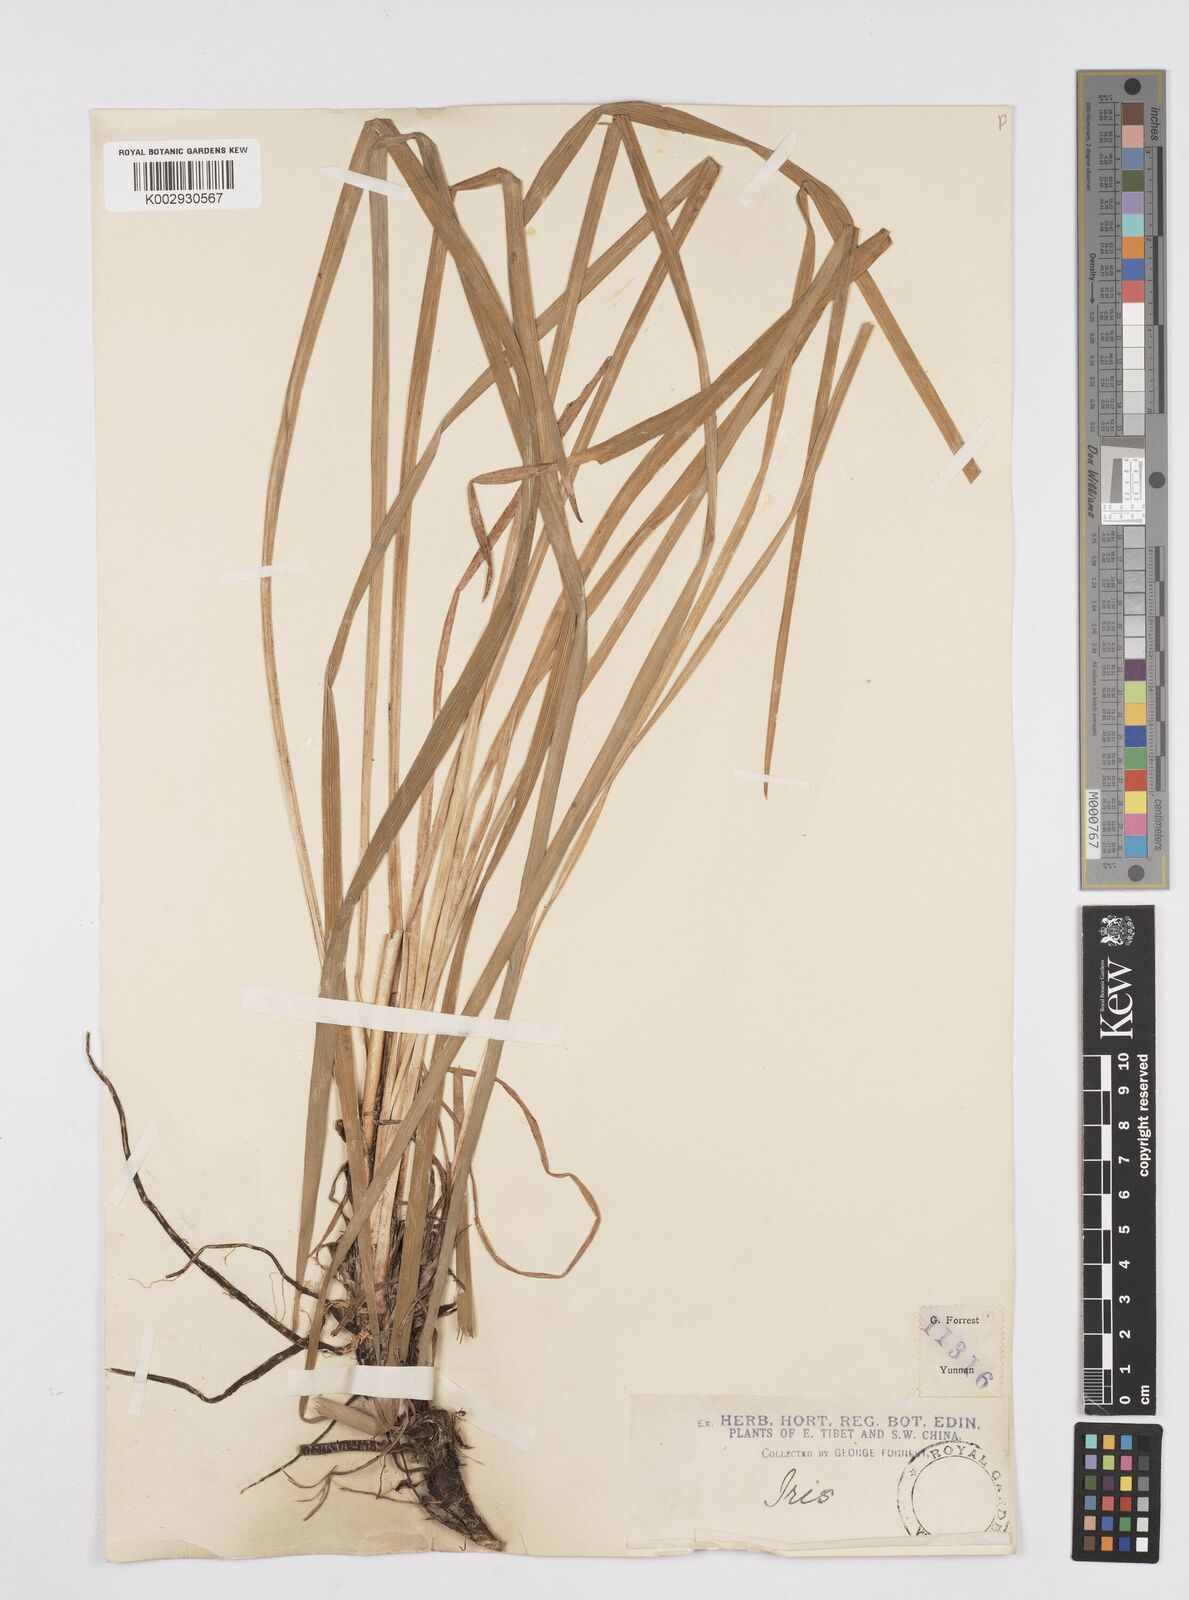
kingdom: Plantae
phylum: Tracheophyta
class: Liliopsida
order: Asparagales
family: Iridaceae
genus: Iris
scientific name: Iris bulleyana
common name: Southwest iris
